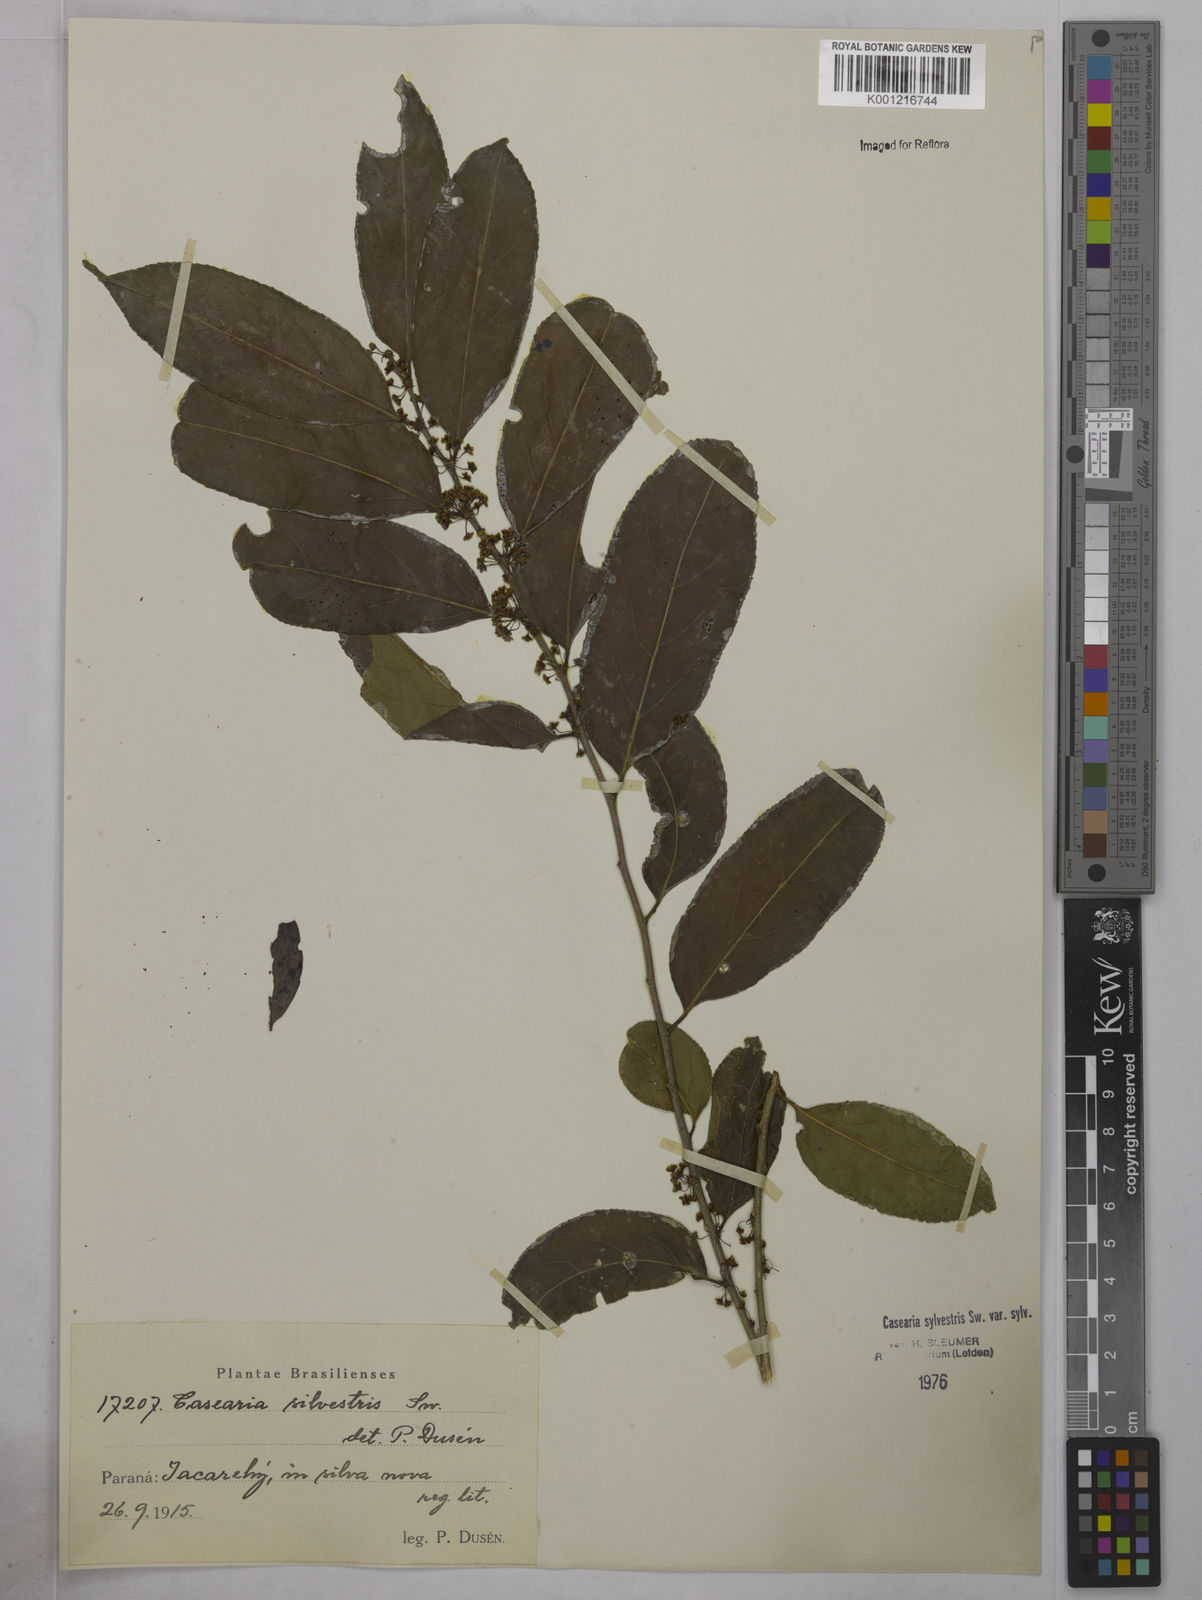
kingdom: Plantae
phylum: Tracheophyta
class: Magnoliopsida
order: Malpighiales
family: Salicaceae
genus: Casearia
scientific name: Casearia sylvestris
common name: Wild sage
